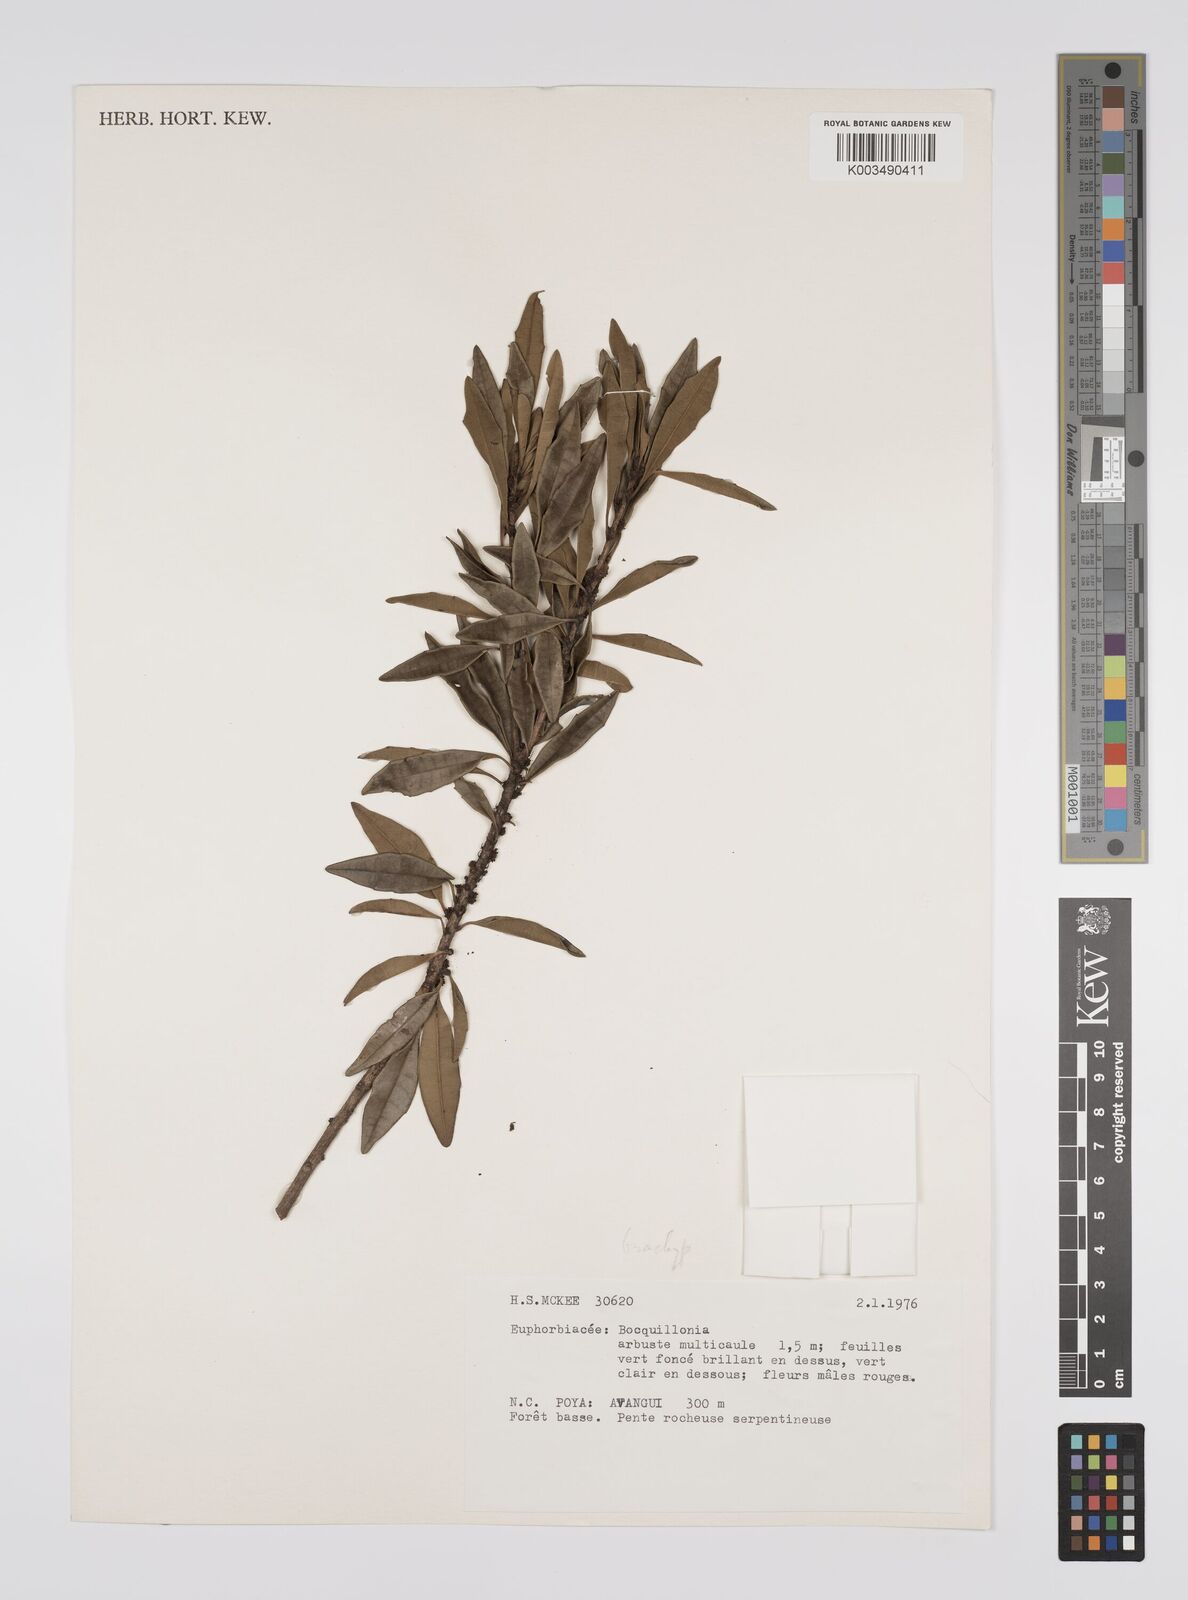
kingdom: Plantae
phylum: Tracheophyta
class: Magnoliopsida
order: Malpighiales
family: Euphorbiaceae
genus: Bocquillonia
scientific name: Bocquillonia brachypoda
